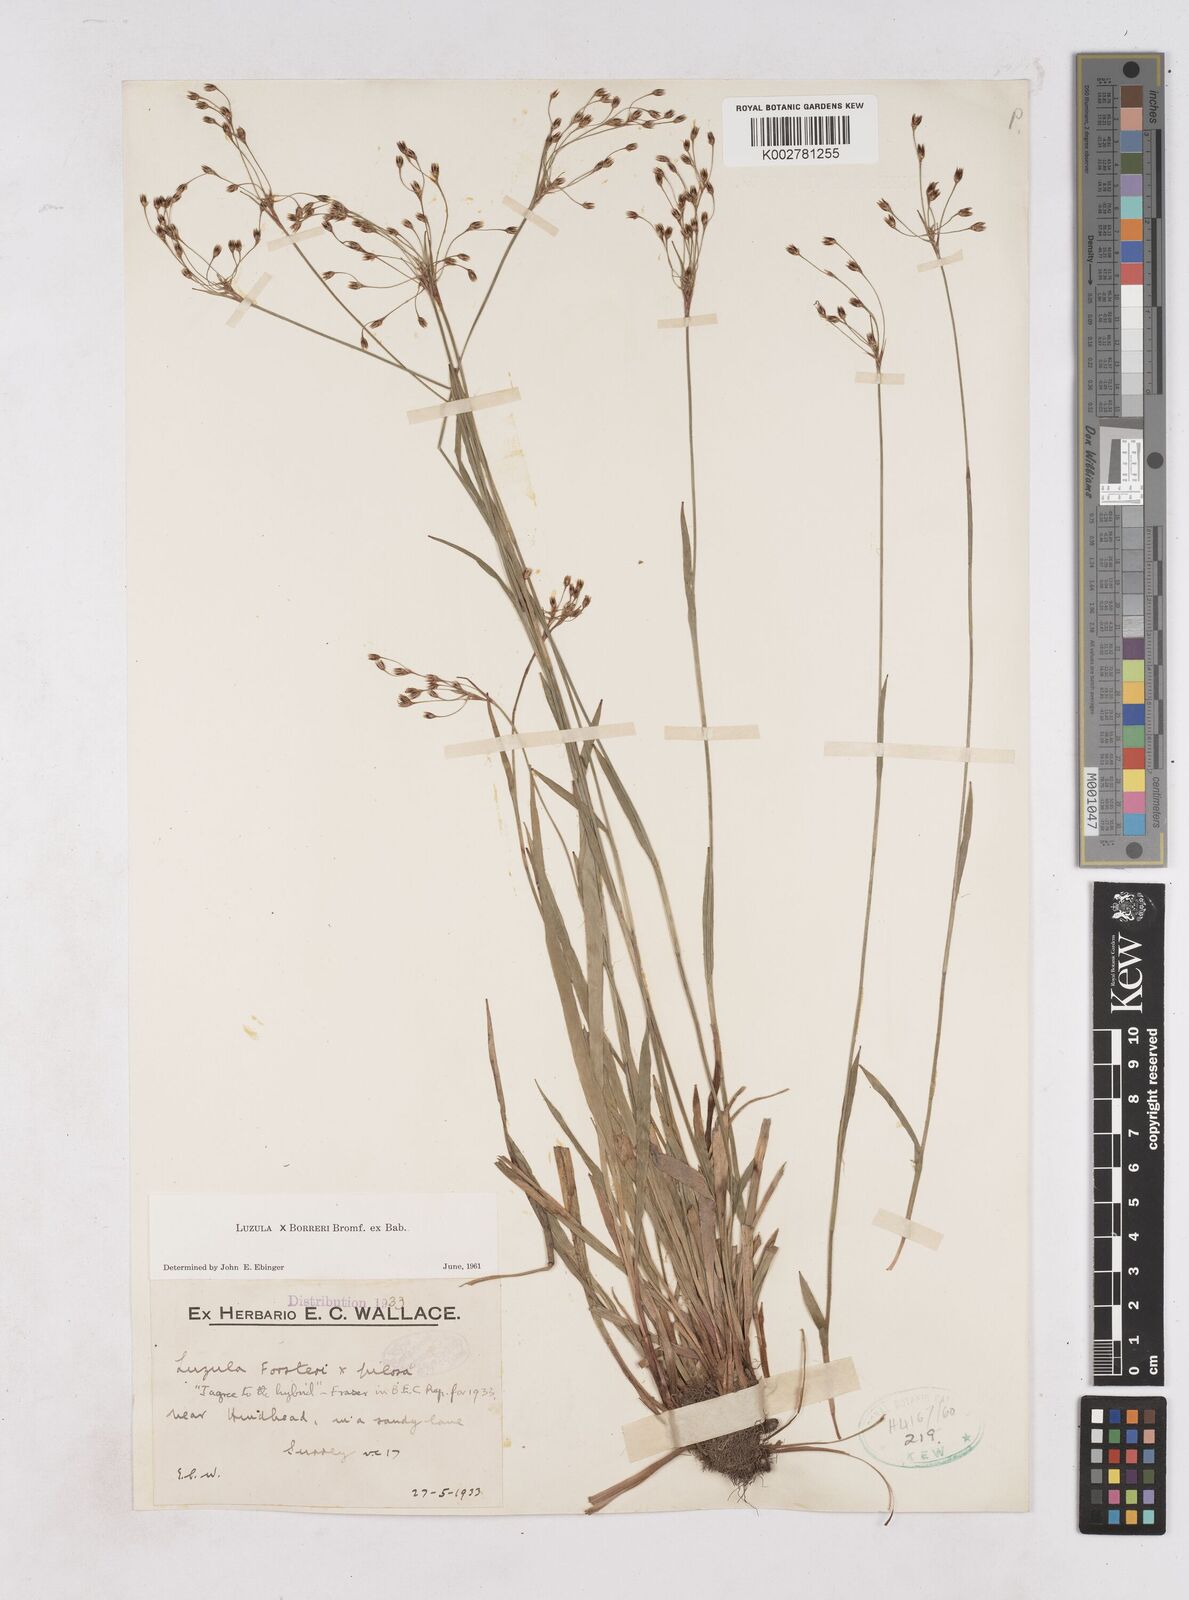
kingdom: Plantae
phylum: Tracheophyta
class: Liliopsida
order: Poales
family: Juncaceae
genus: Luzula
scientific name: Luzula forsteri
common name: Southern wood-rush
